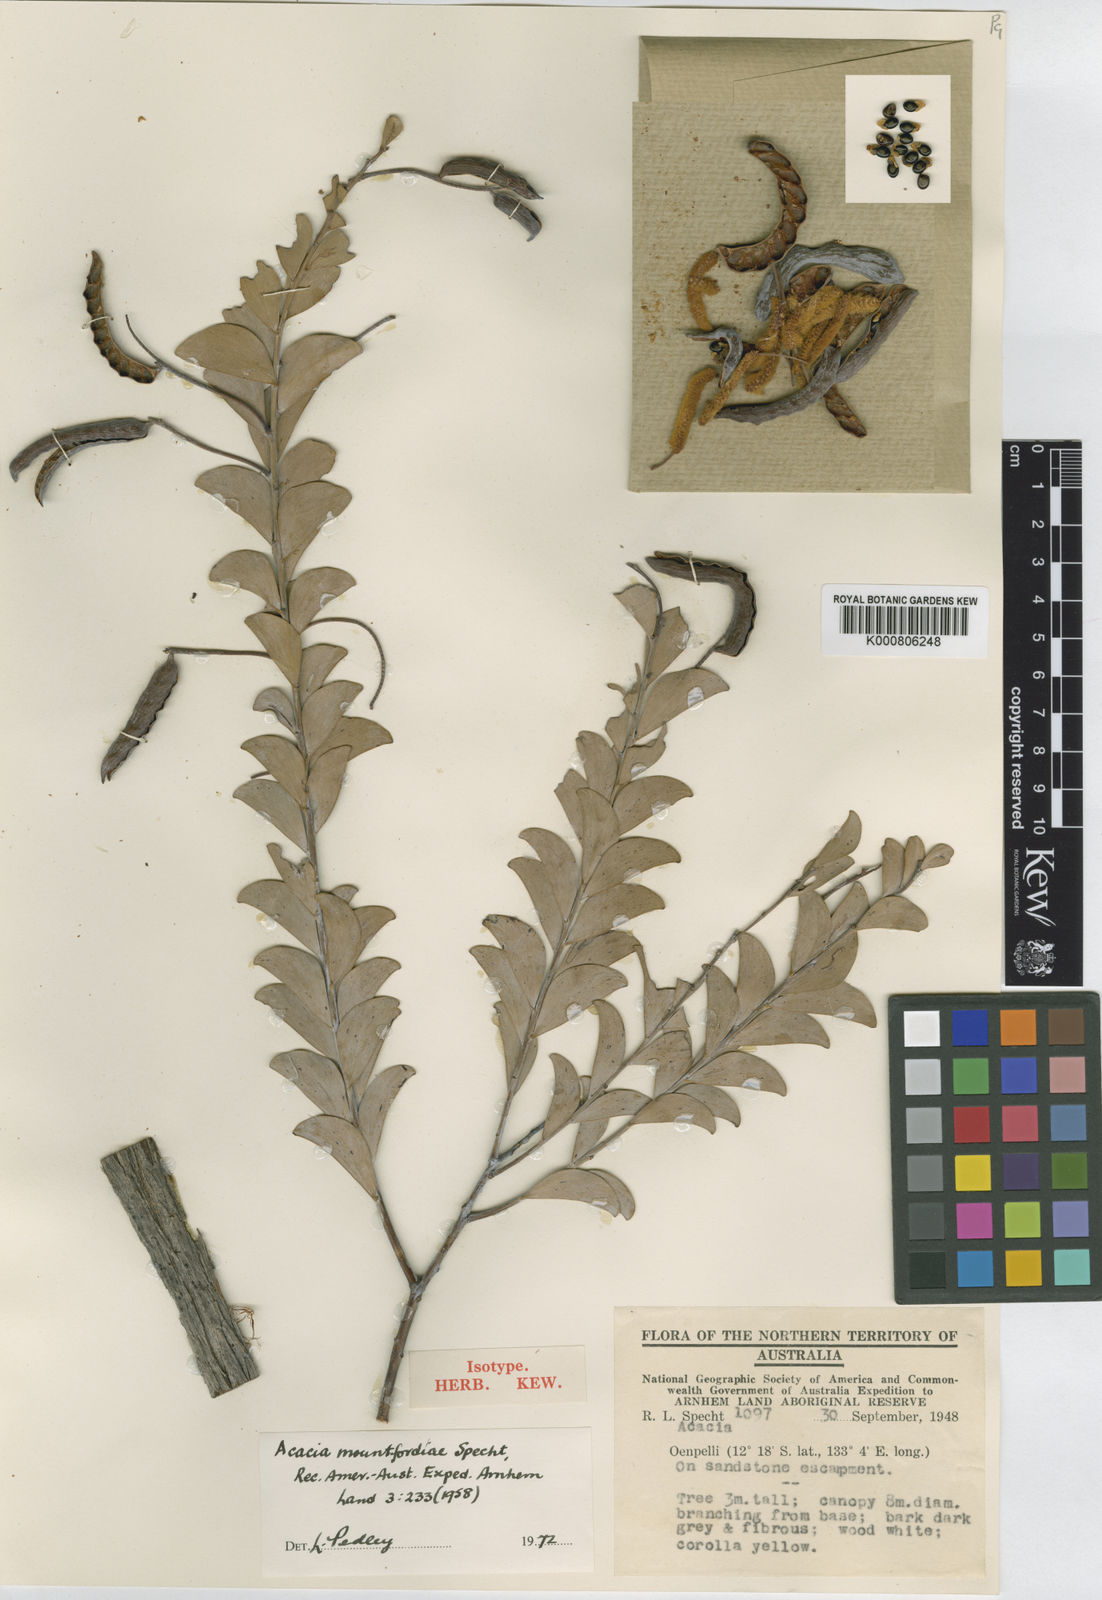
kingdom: Plantae
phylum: Tracheophyta
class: Magnoliopsida
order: Fabales
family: Fabaceae
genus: Acacia
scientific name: Acacia mountfordiae
